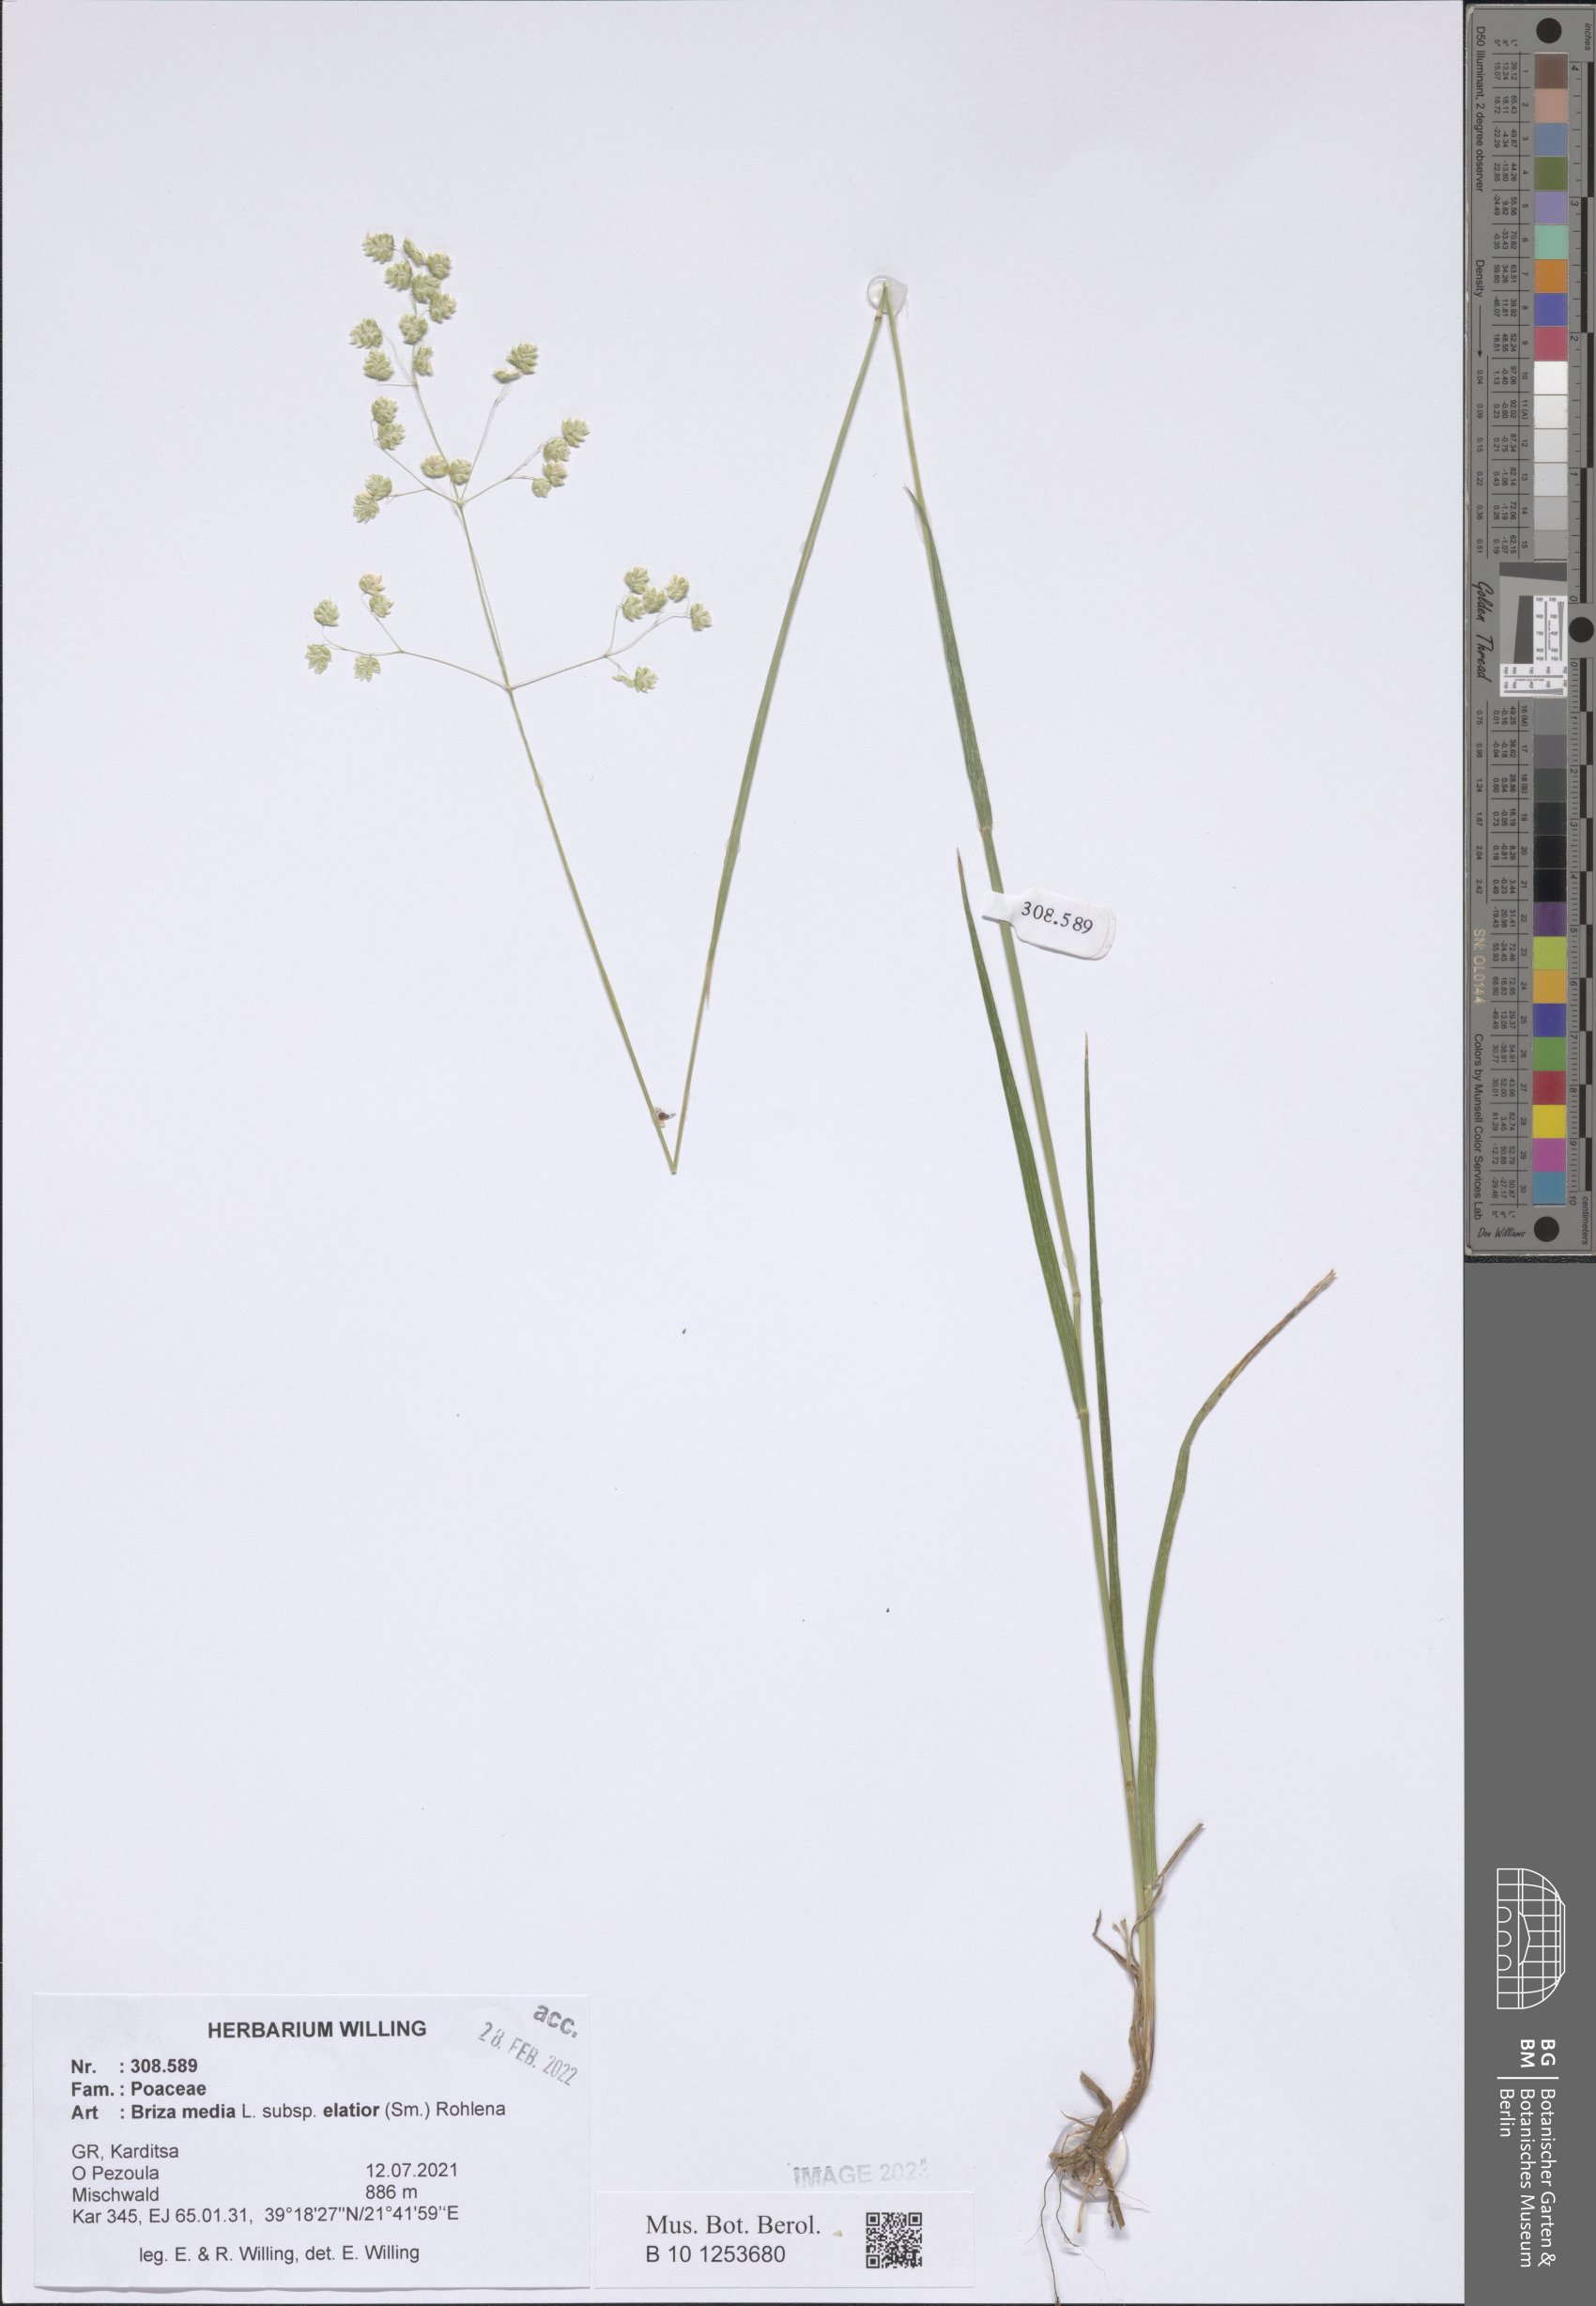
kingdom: Plantae
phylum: Tracheophyta
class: Liliopsida
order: Poales
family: Poaceae
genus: Briza
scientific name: Briza media
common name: Quaking grass
